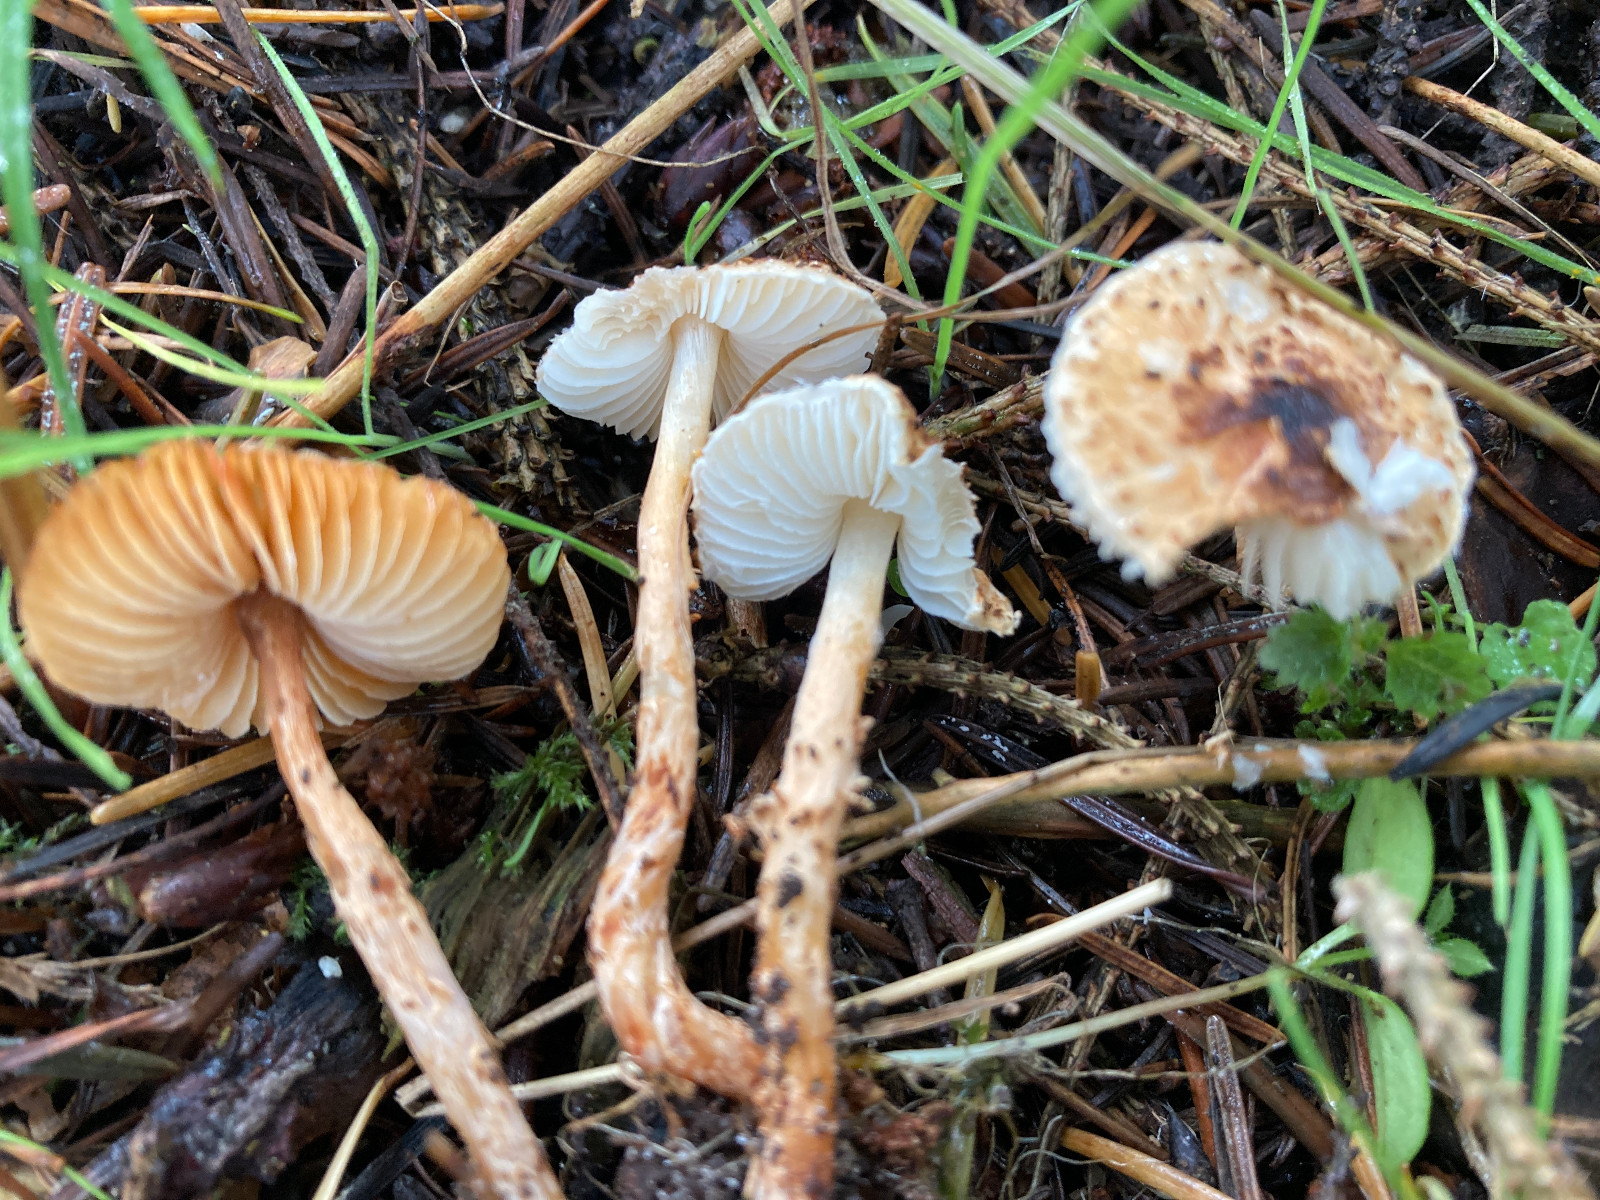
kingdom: Fungi
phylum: Basidiomycota
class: Agaricomycetes
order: Agaricales
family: Agaricaceae
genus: Lepiota
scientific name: Lepiota castanea
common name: kastaniebrun parasolhat
